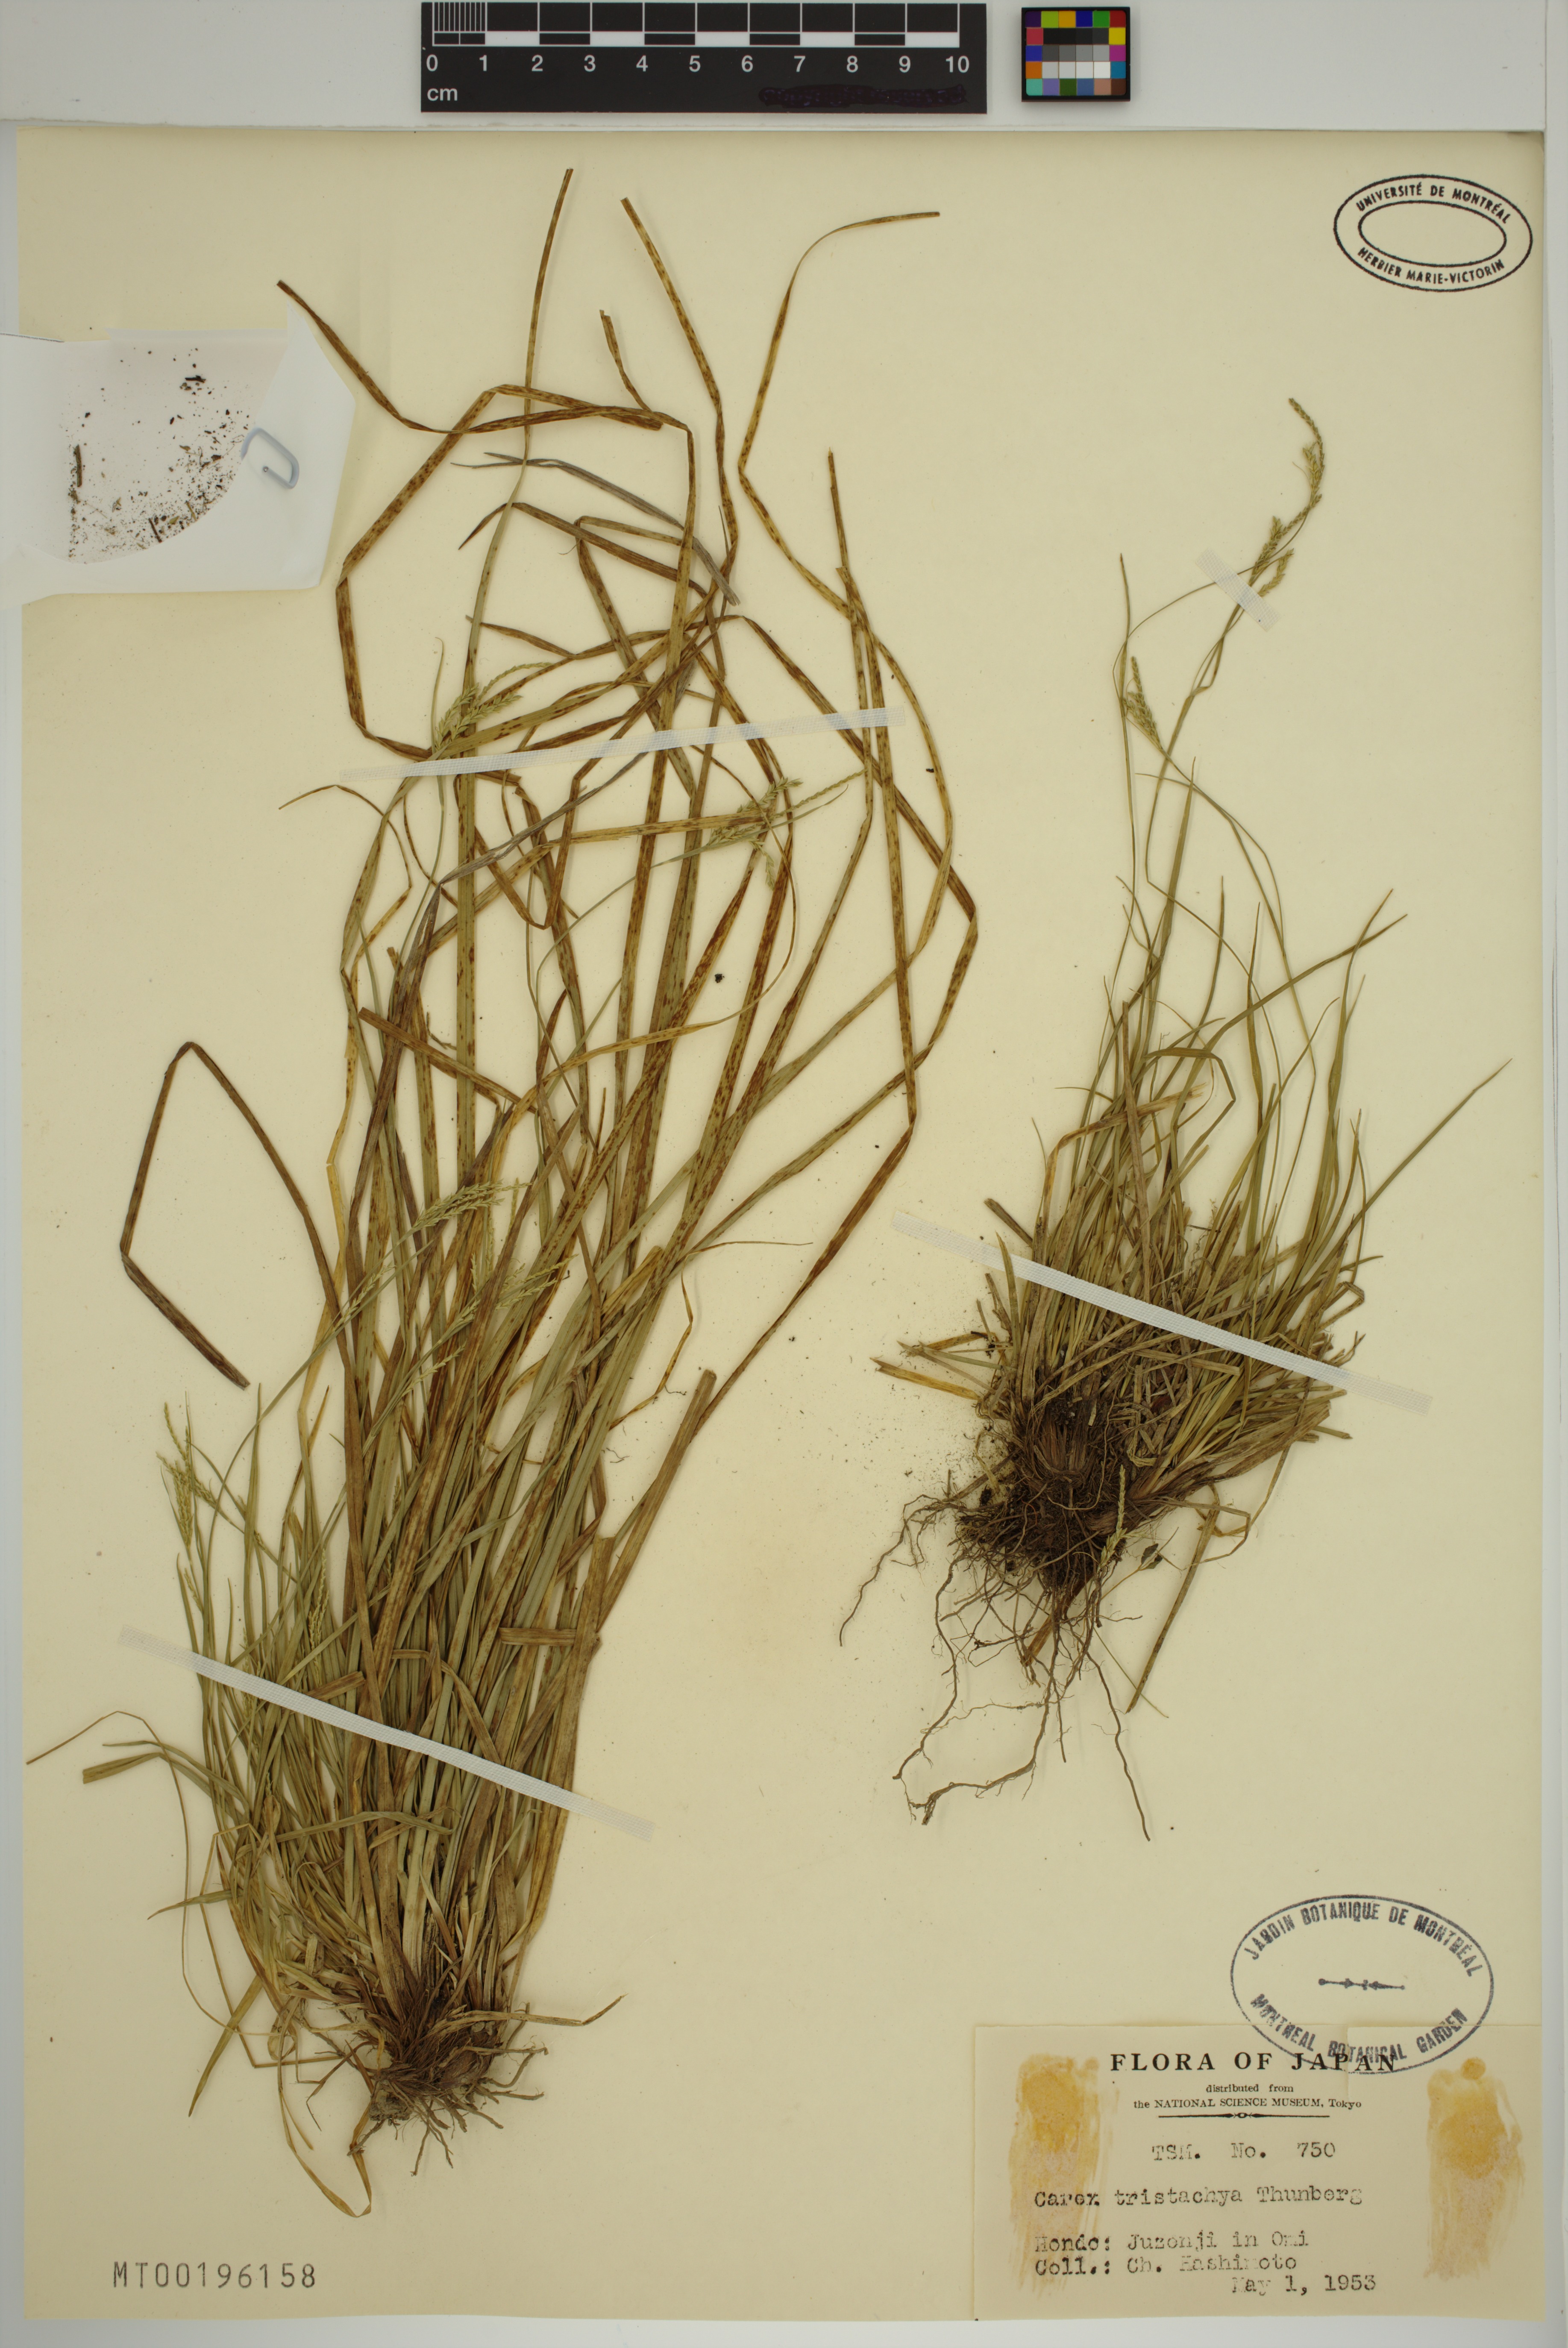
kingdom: Plantae
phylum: Tracheophyta
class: Liliopsida
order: Poales
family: Cyperaceae
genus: Carex
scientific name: Carex tristachya
